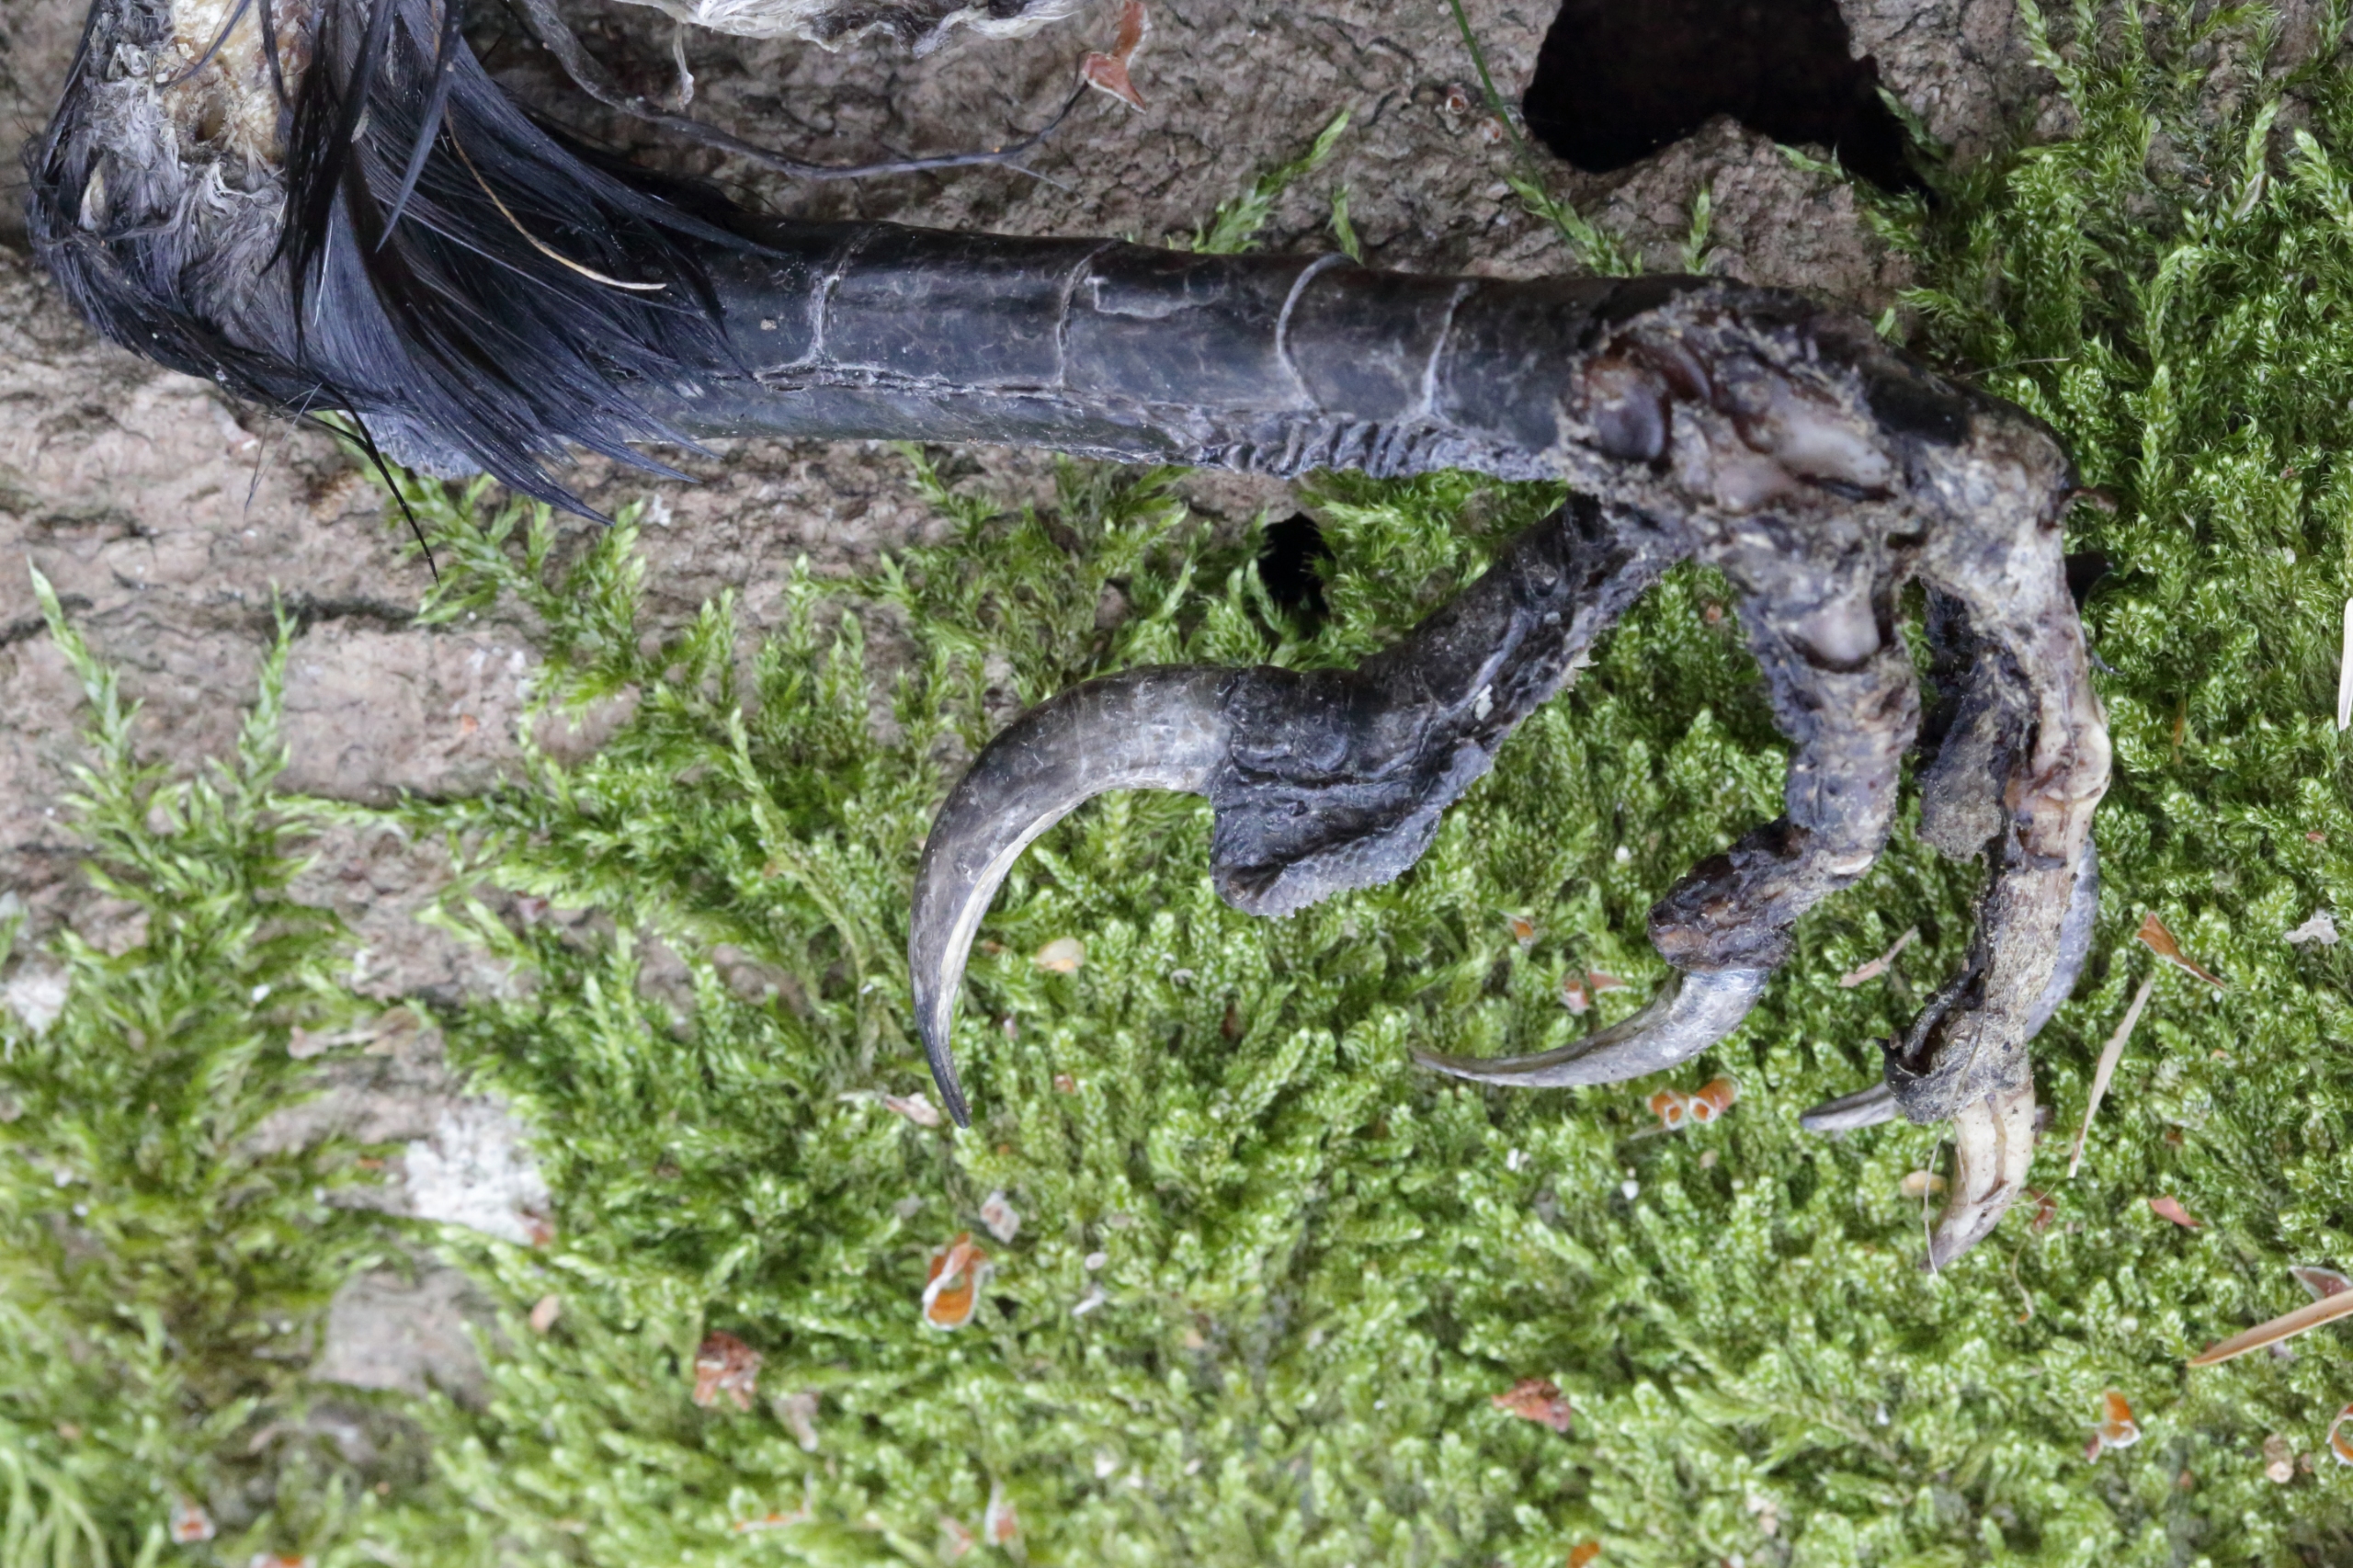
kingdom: Animalia
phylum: Chordata
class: Aves
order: Passeriformes
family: Corvidae
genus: Corvus
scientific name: Corvus corax
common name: Ravn
